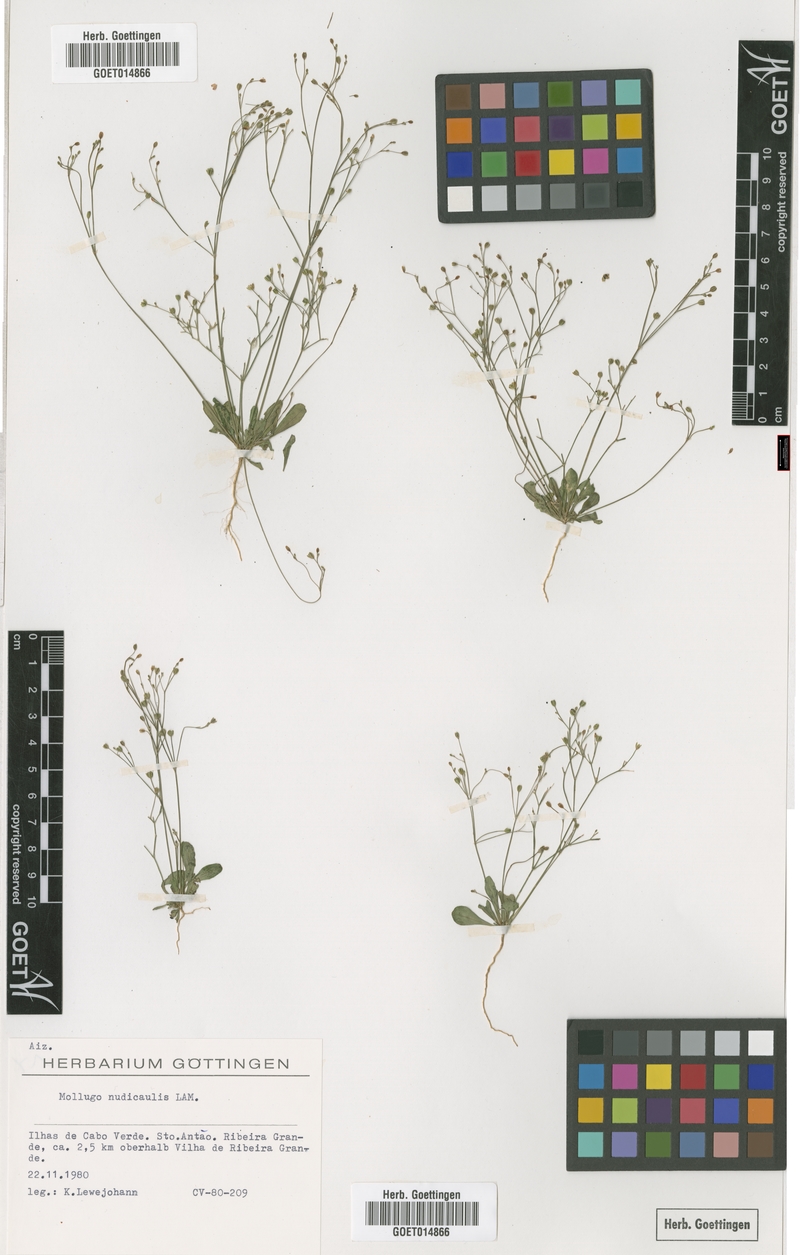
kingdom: Plantae
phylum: Tracheophyta
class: Magnoliopsida
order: Caryophyllales
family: Molluginaceae
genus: Paramollugo
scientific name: Paramollugo nudicaulis
